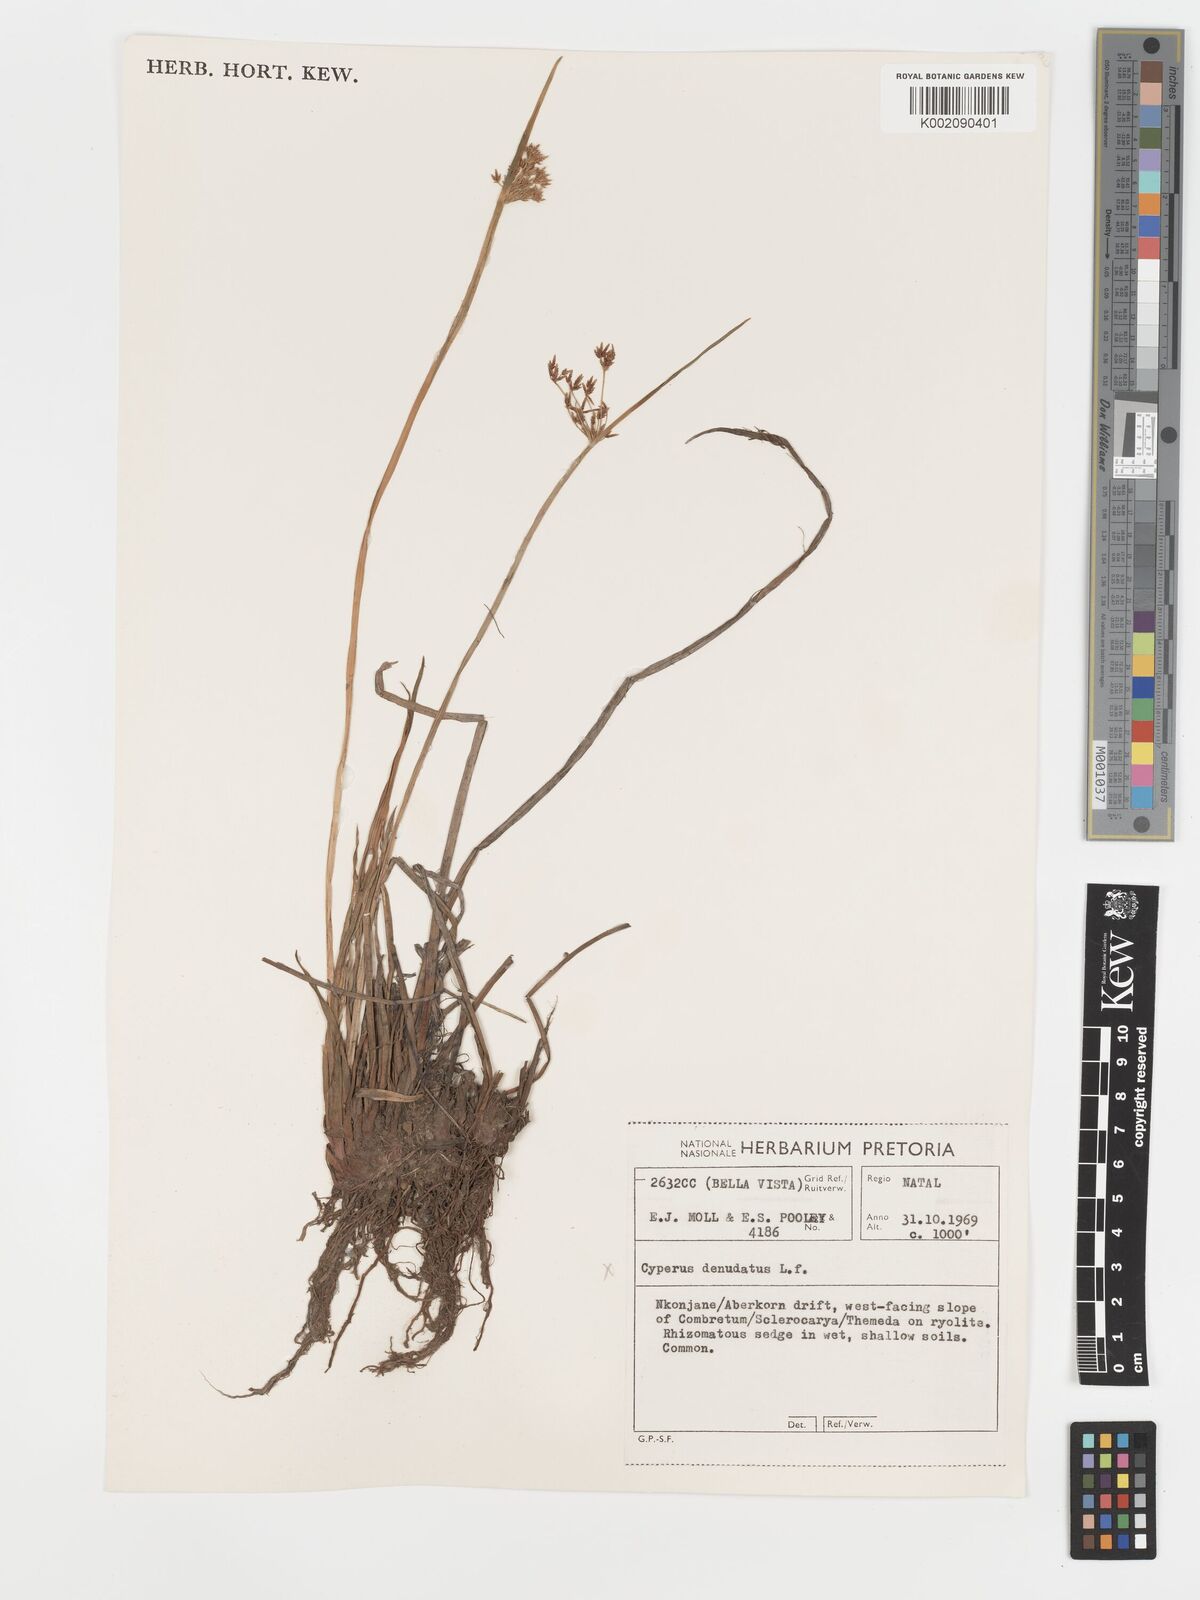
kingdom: Plantae
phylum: Tracheophyta
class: Liliopsida
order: Poales
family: Cyperaceae
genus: Cyperus
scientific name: Cyperus platycaulis
